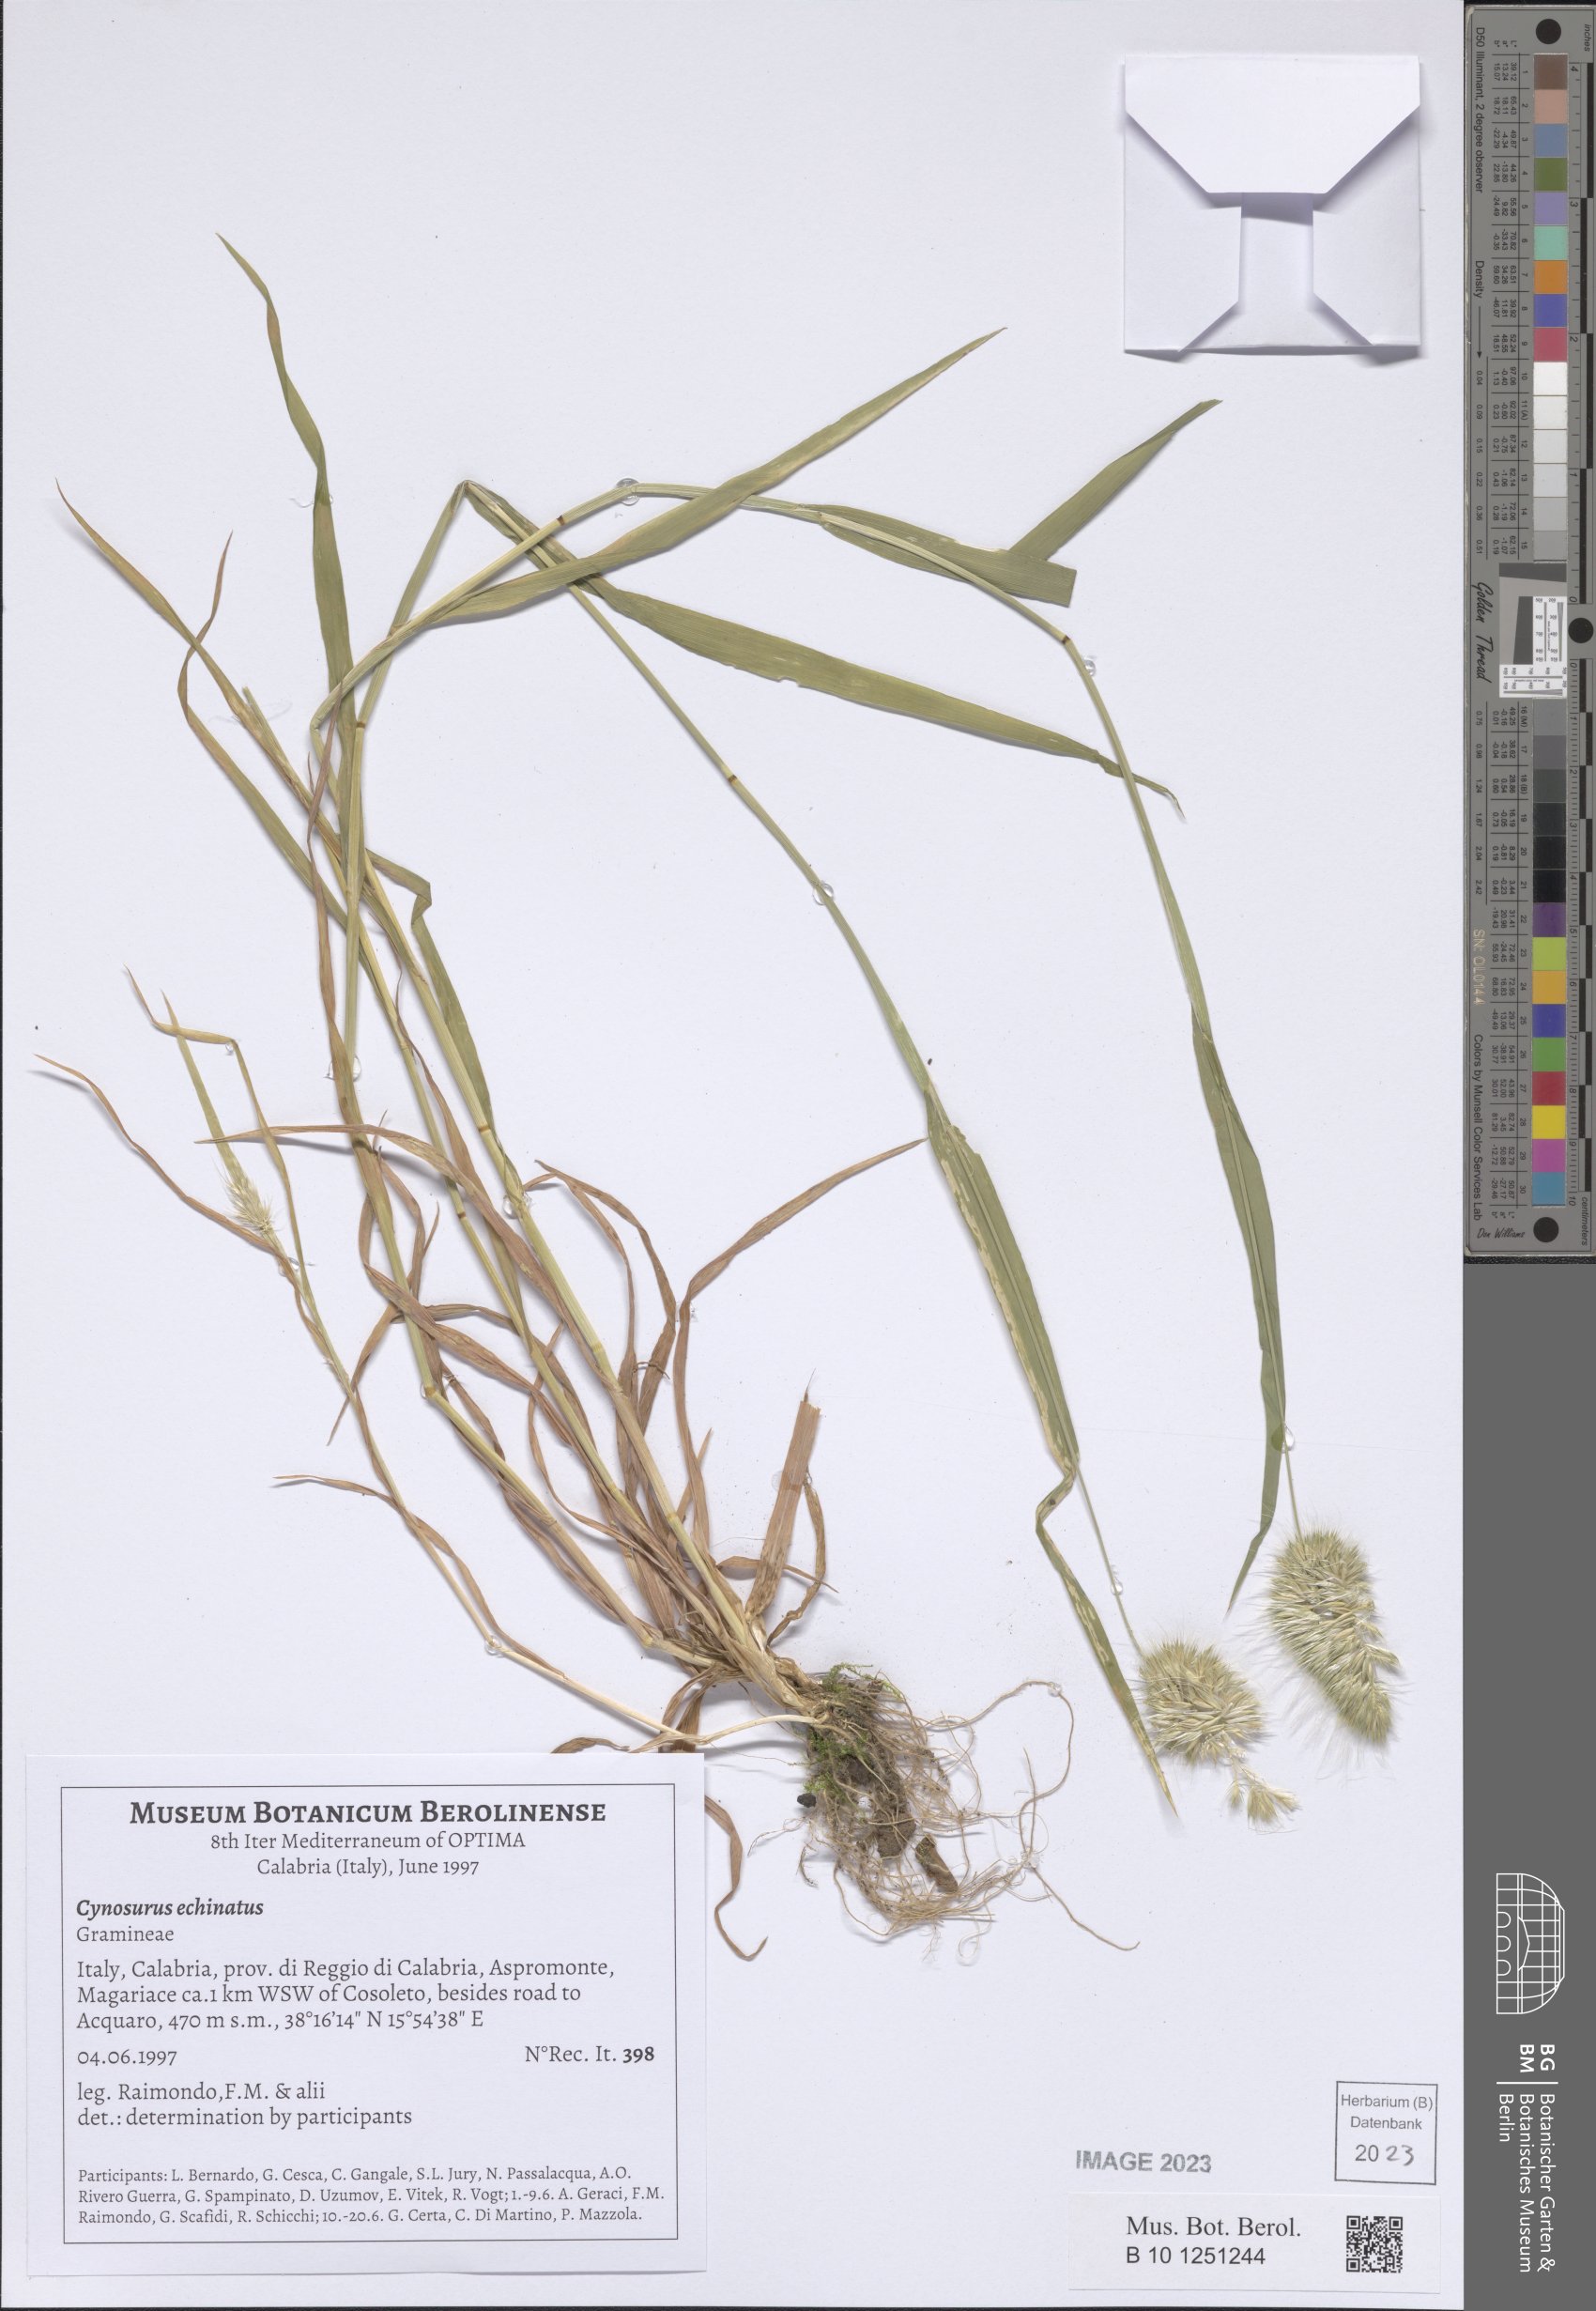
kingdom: Plantae
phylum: Tracheophyta
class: Liliopsida
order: Poales
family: Poaceae
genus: Cynosurus
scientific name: Cynosurus echinatus
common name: Rough dog's-tail
